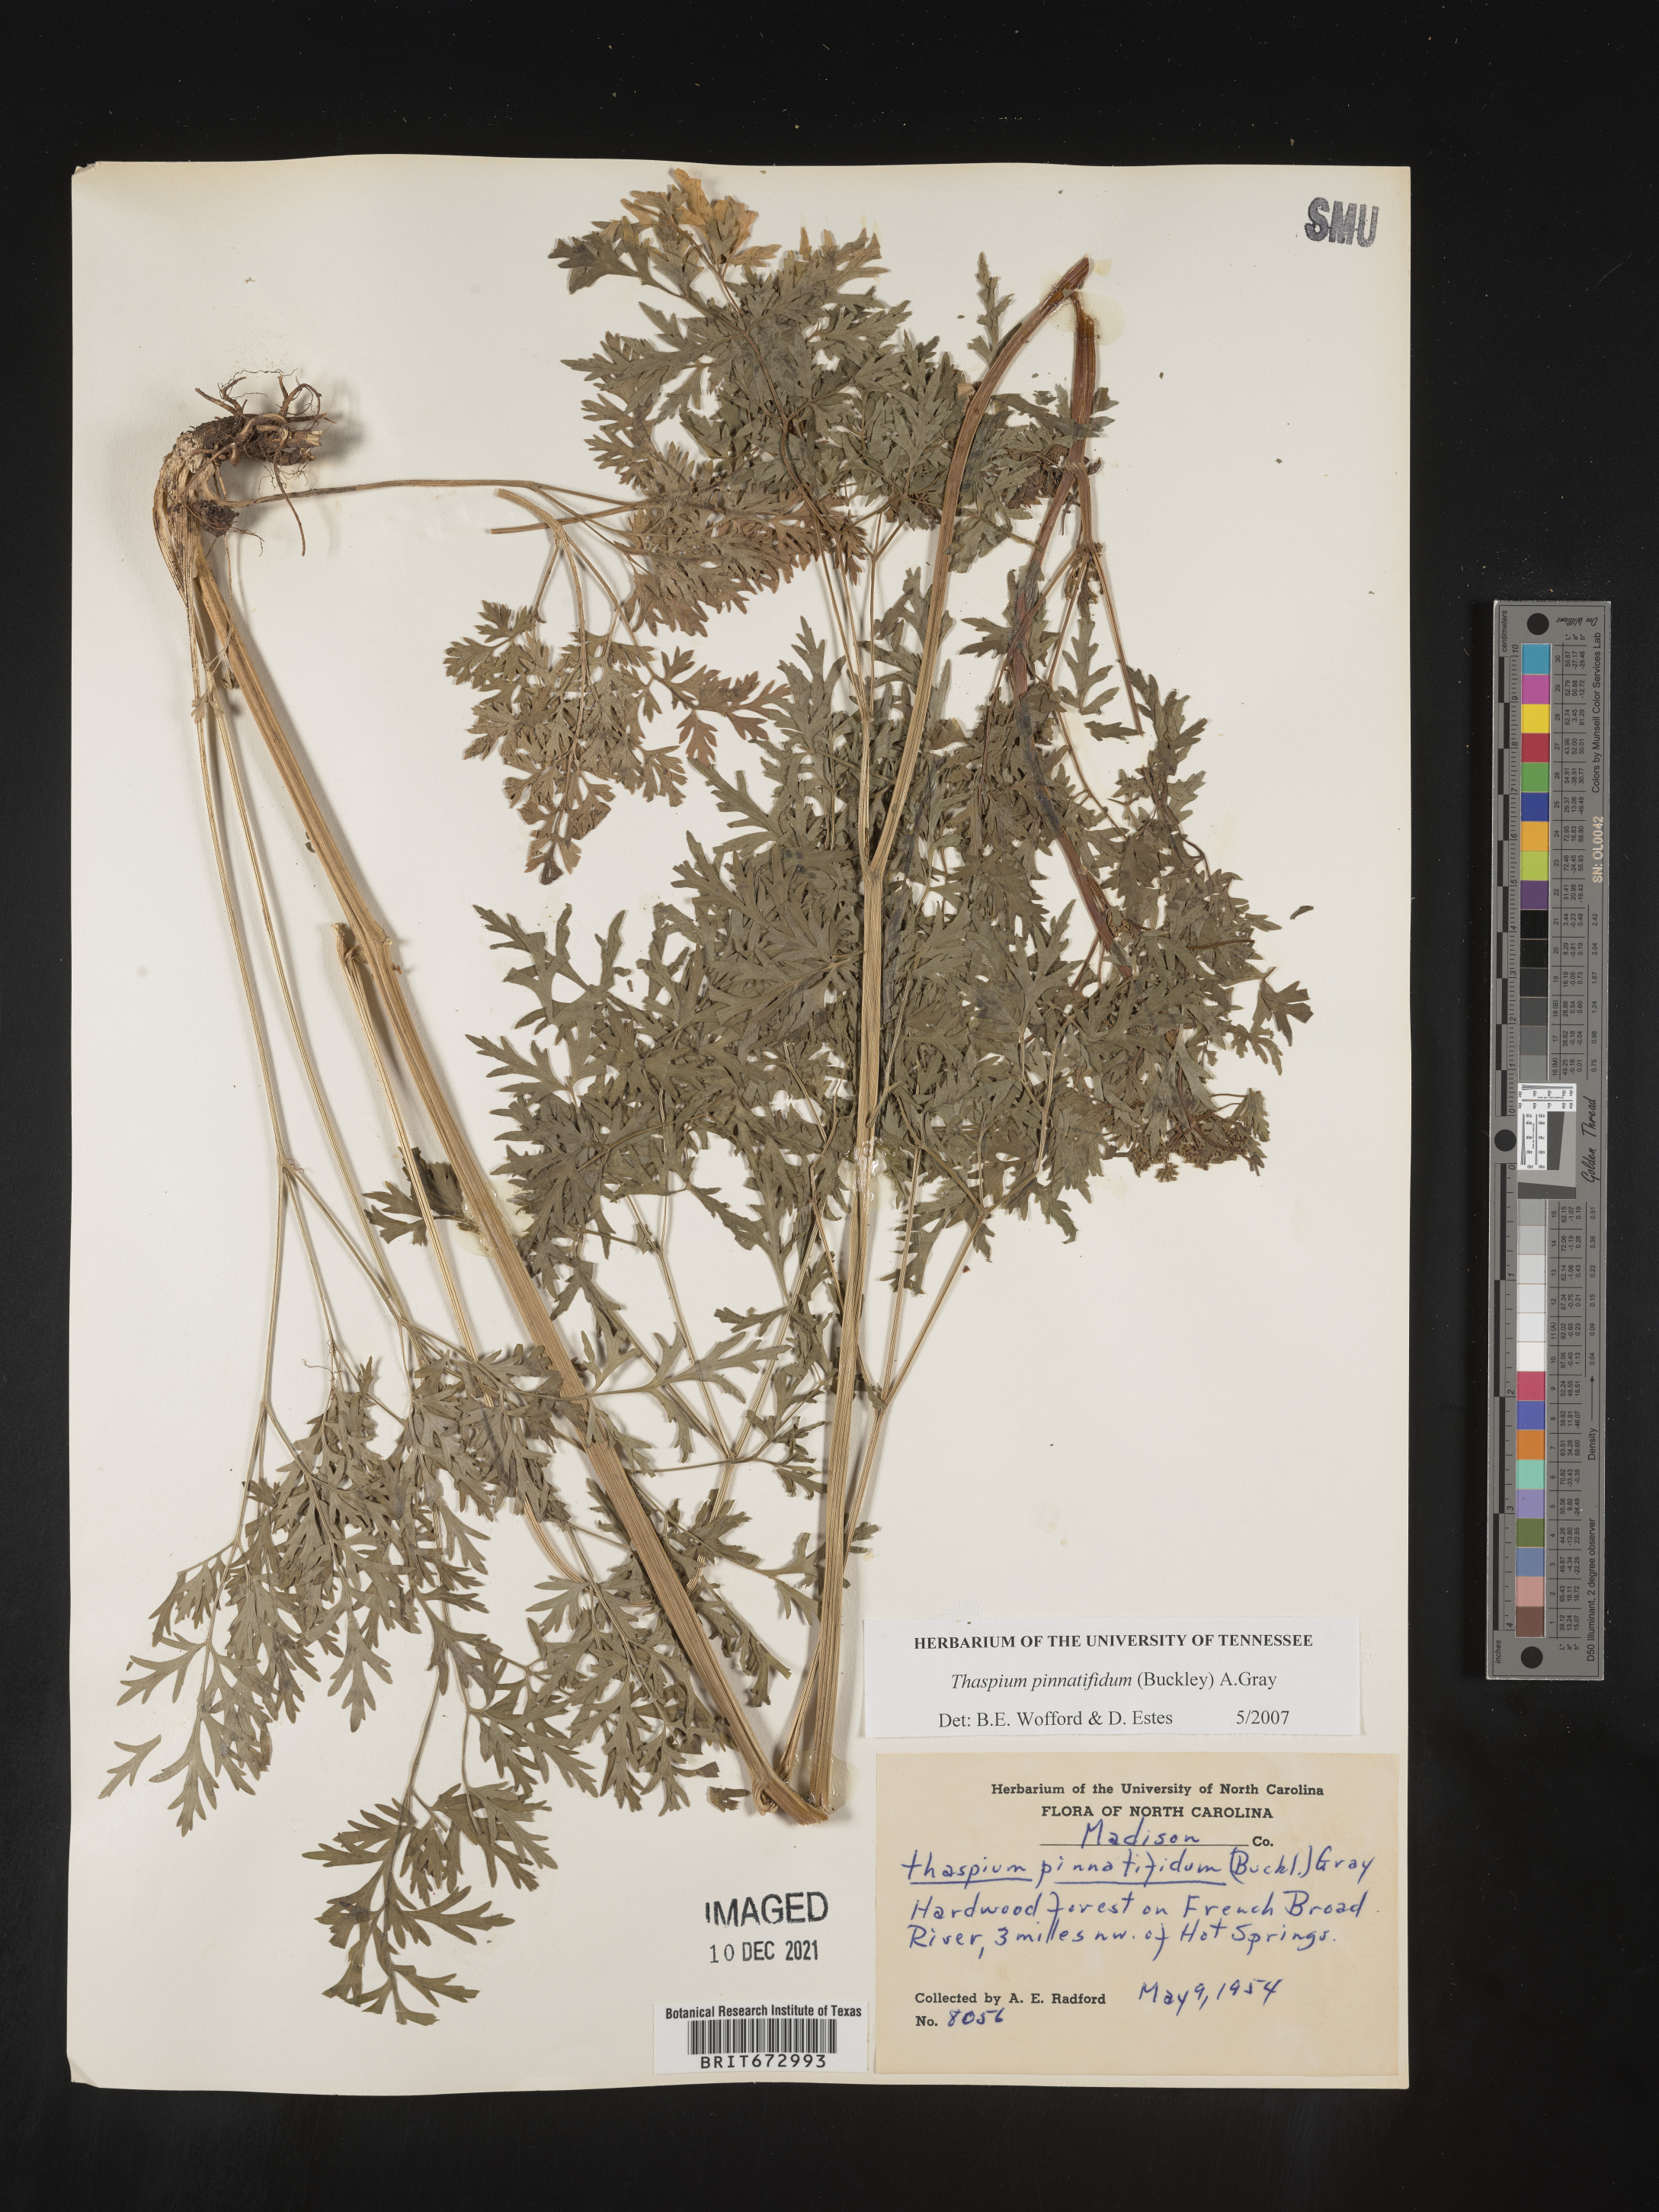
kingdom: Plantae
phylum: Tracheophyta
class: Magnoliopsida
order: Apiales
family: Apiaceae
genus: Thaspium
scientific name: Thaspium
